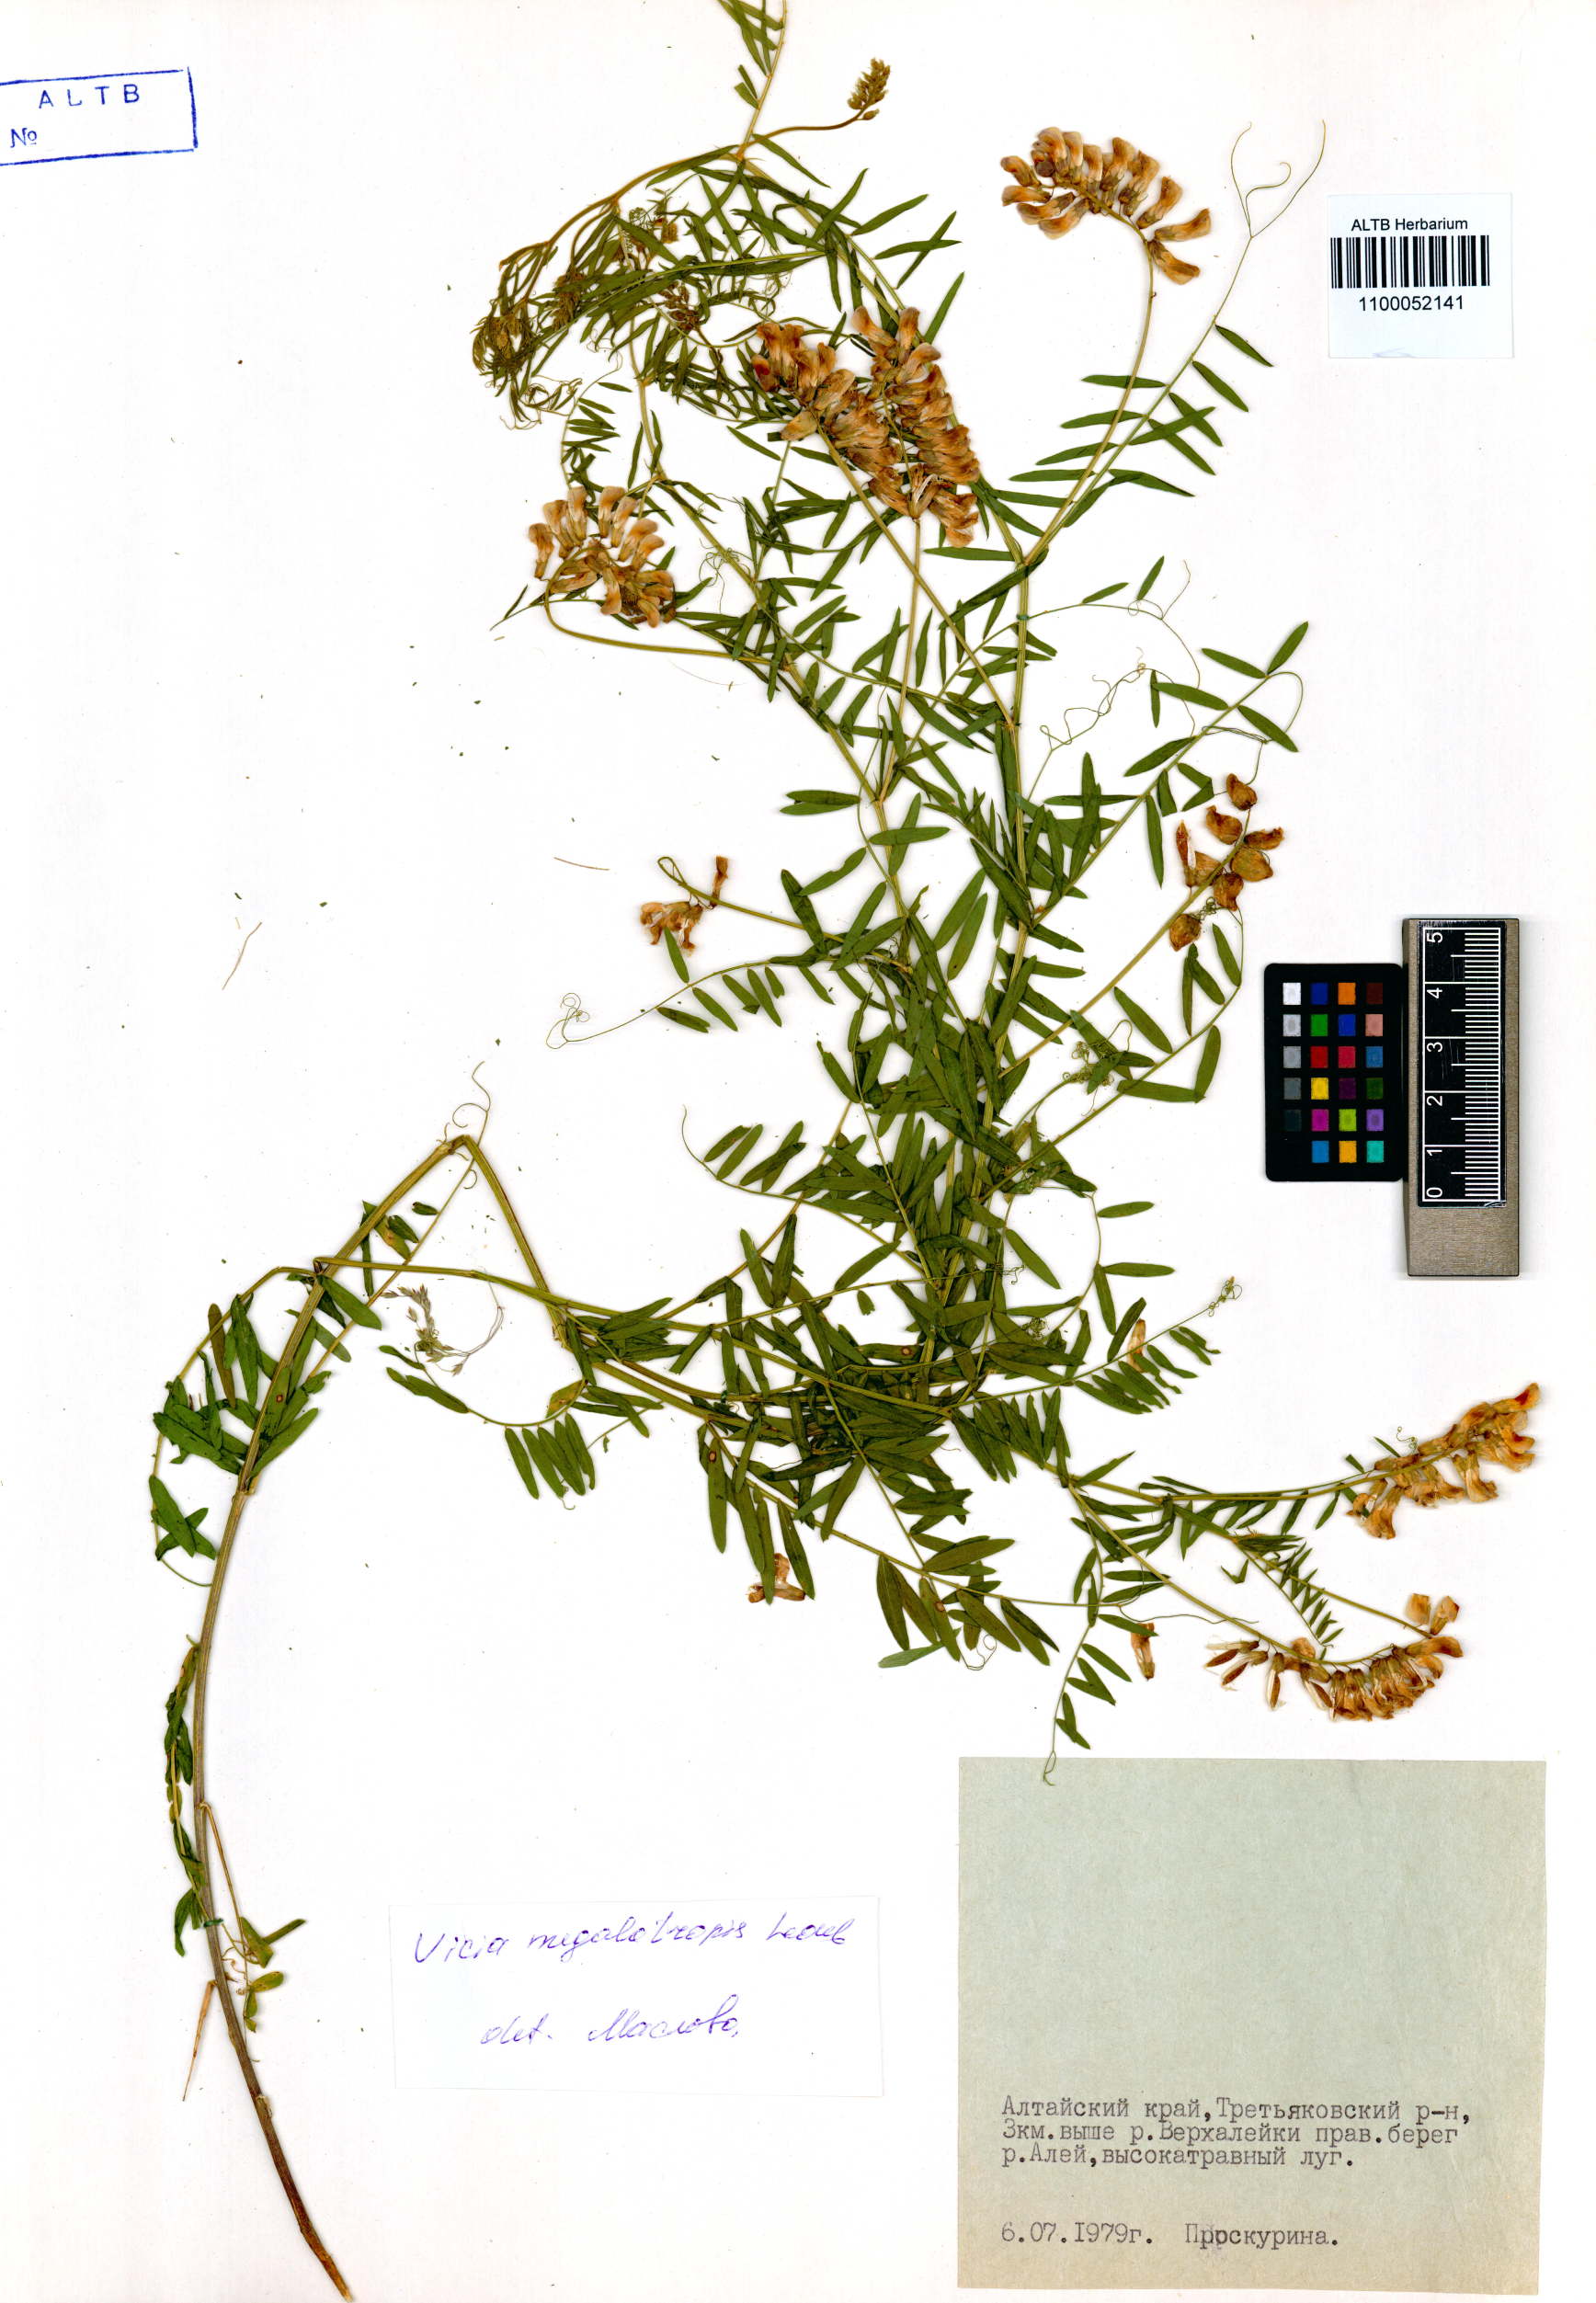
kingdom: Plantae
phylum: Tracheophyta
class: Magnoliopsida
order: Fabales
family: Fabaceae
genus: Vicia
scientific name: Vicia megalotropis
